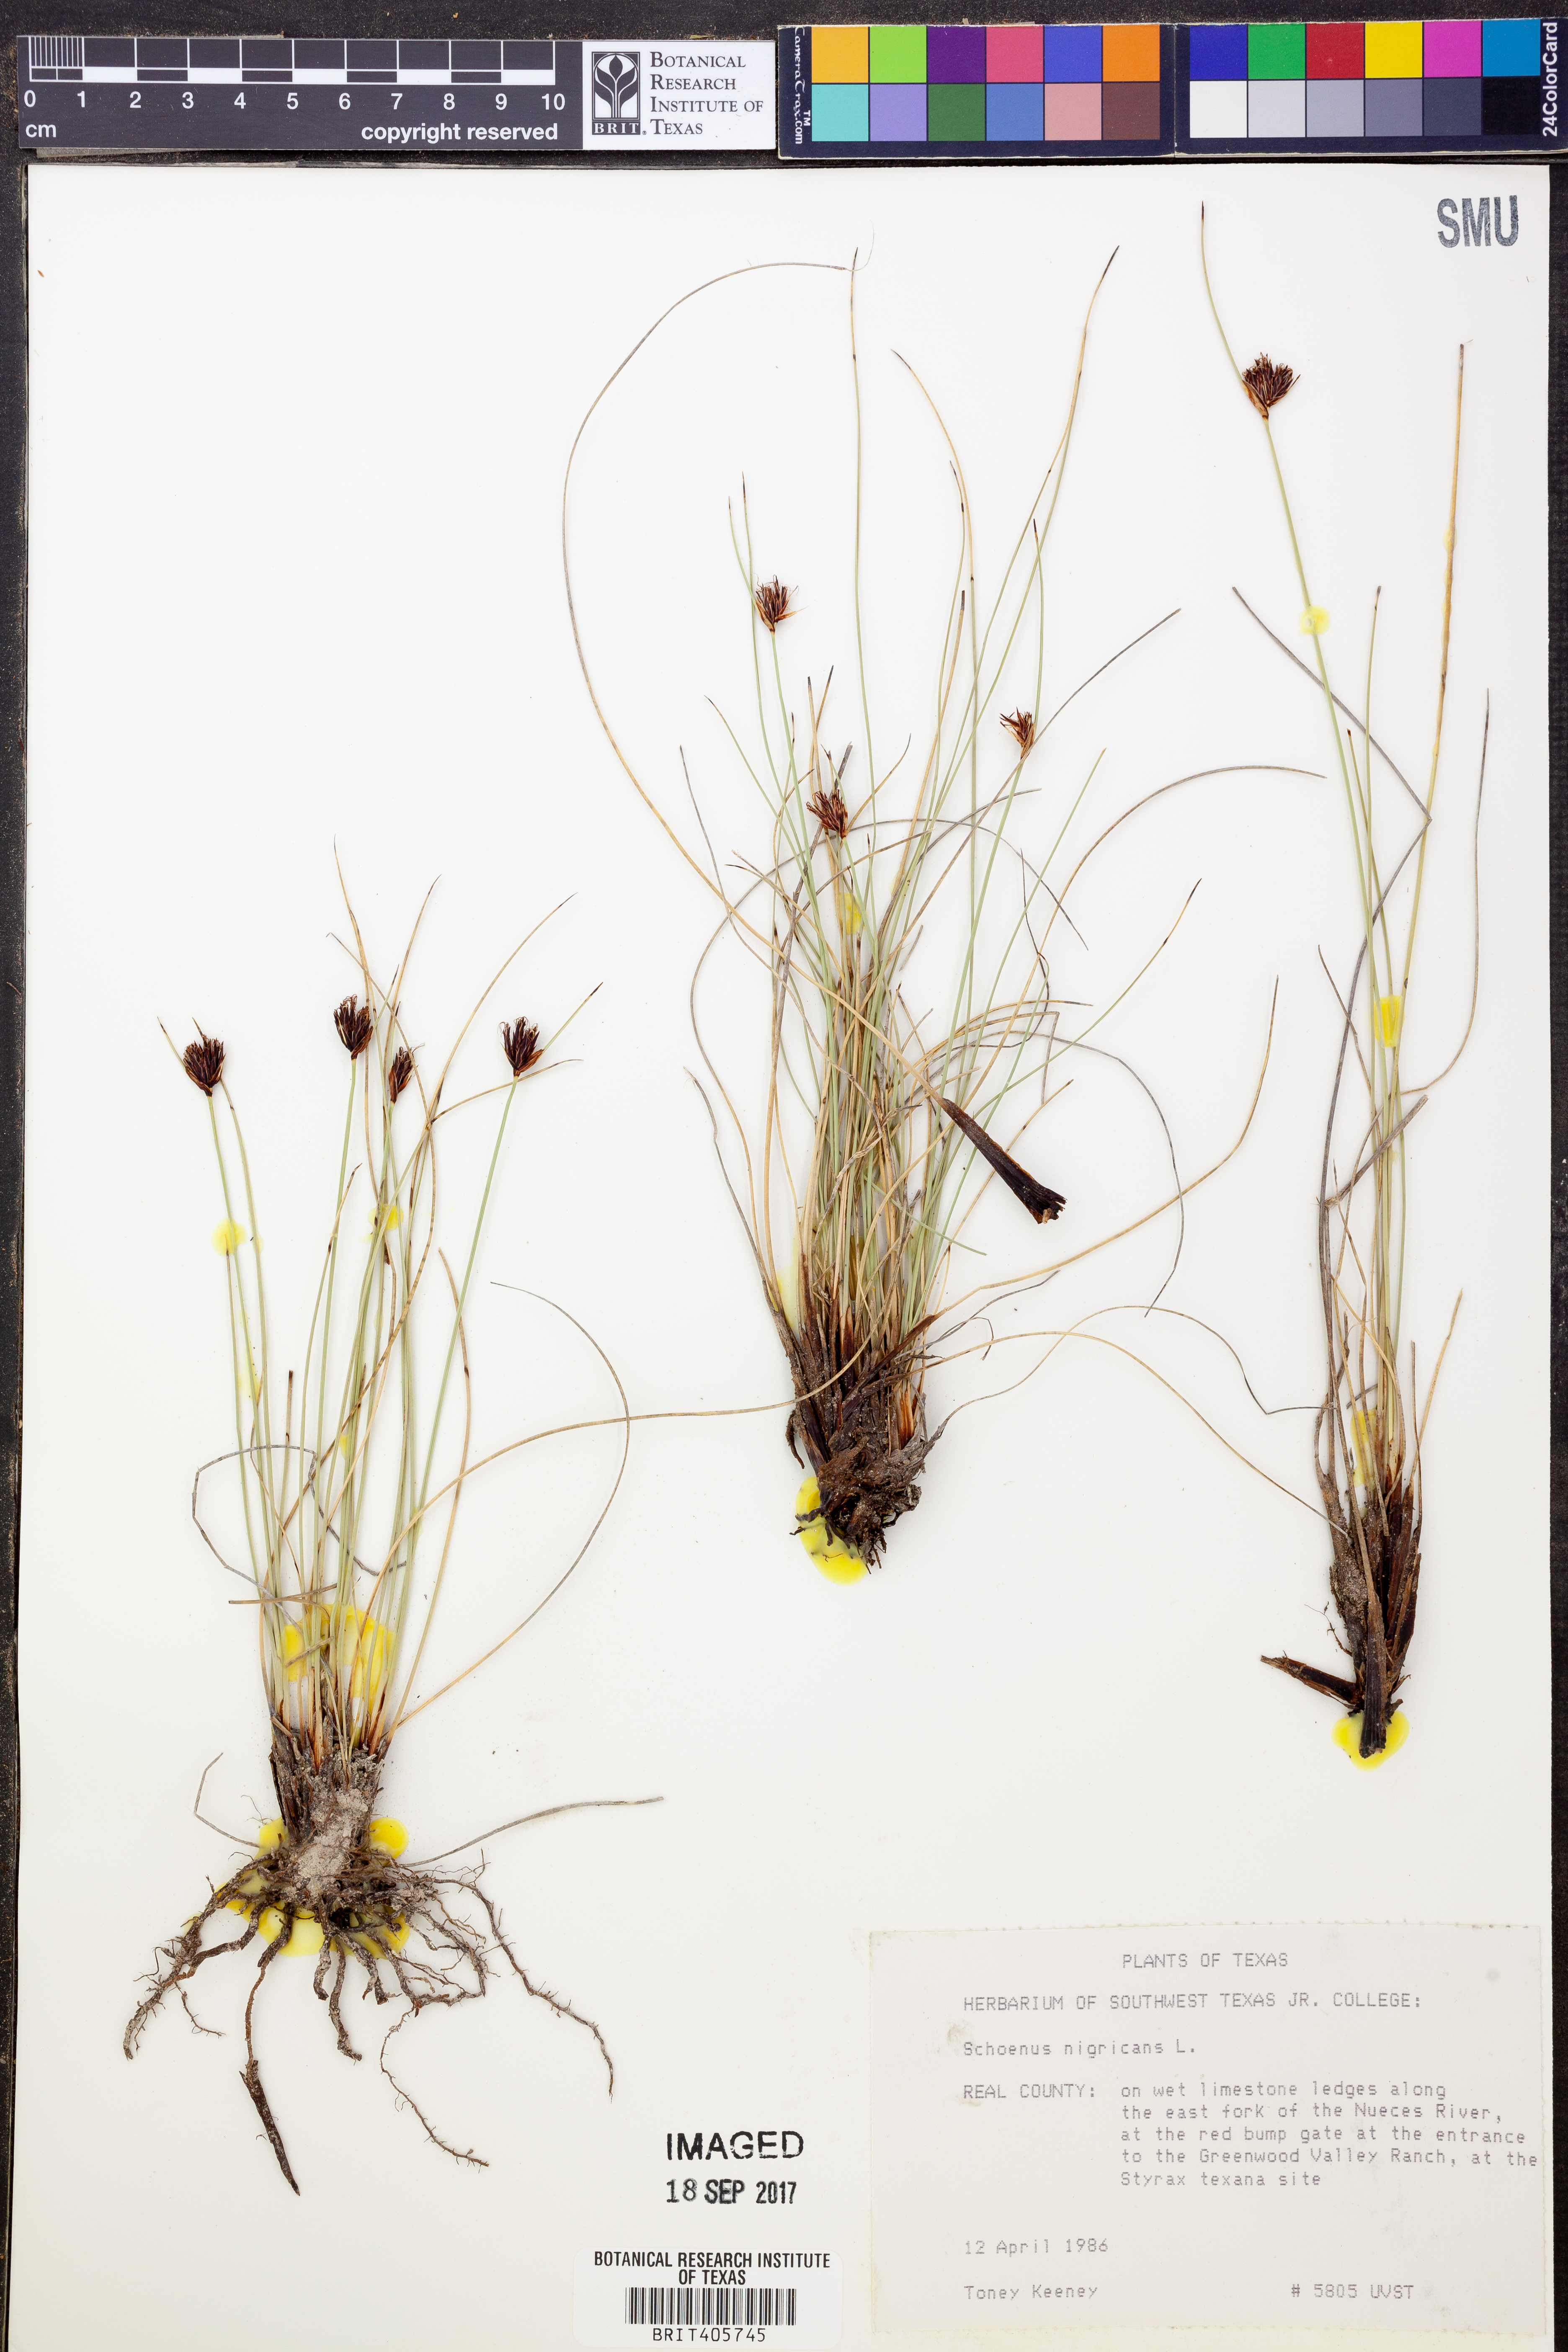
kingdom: Plantae
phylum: Tracheophyta
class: Liliopsida
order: Poales
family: Cyperaceae
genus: Schoenus
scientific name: Schoenus nigricans
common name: Black bog-rush
